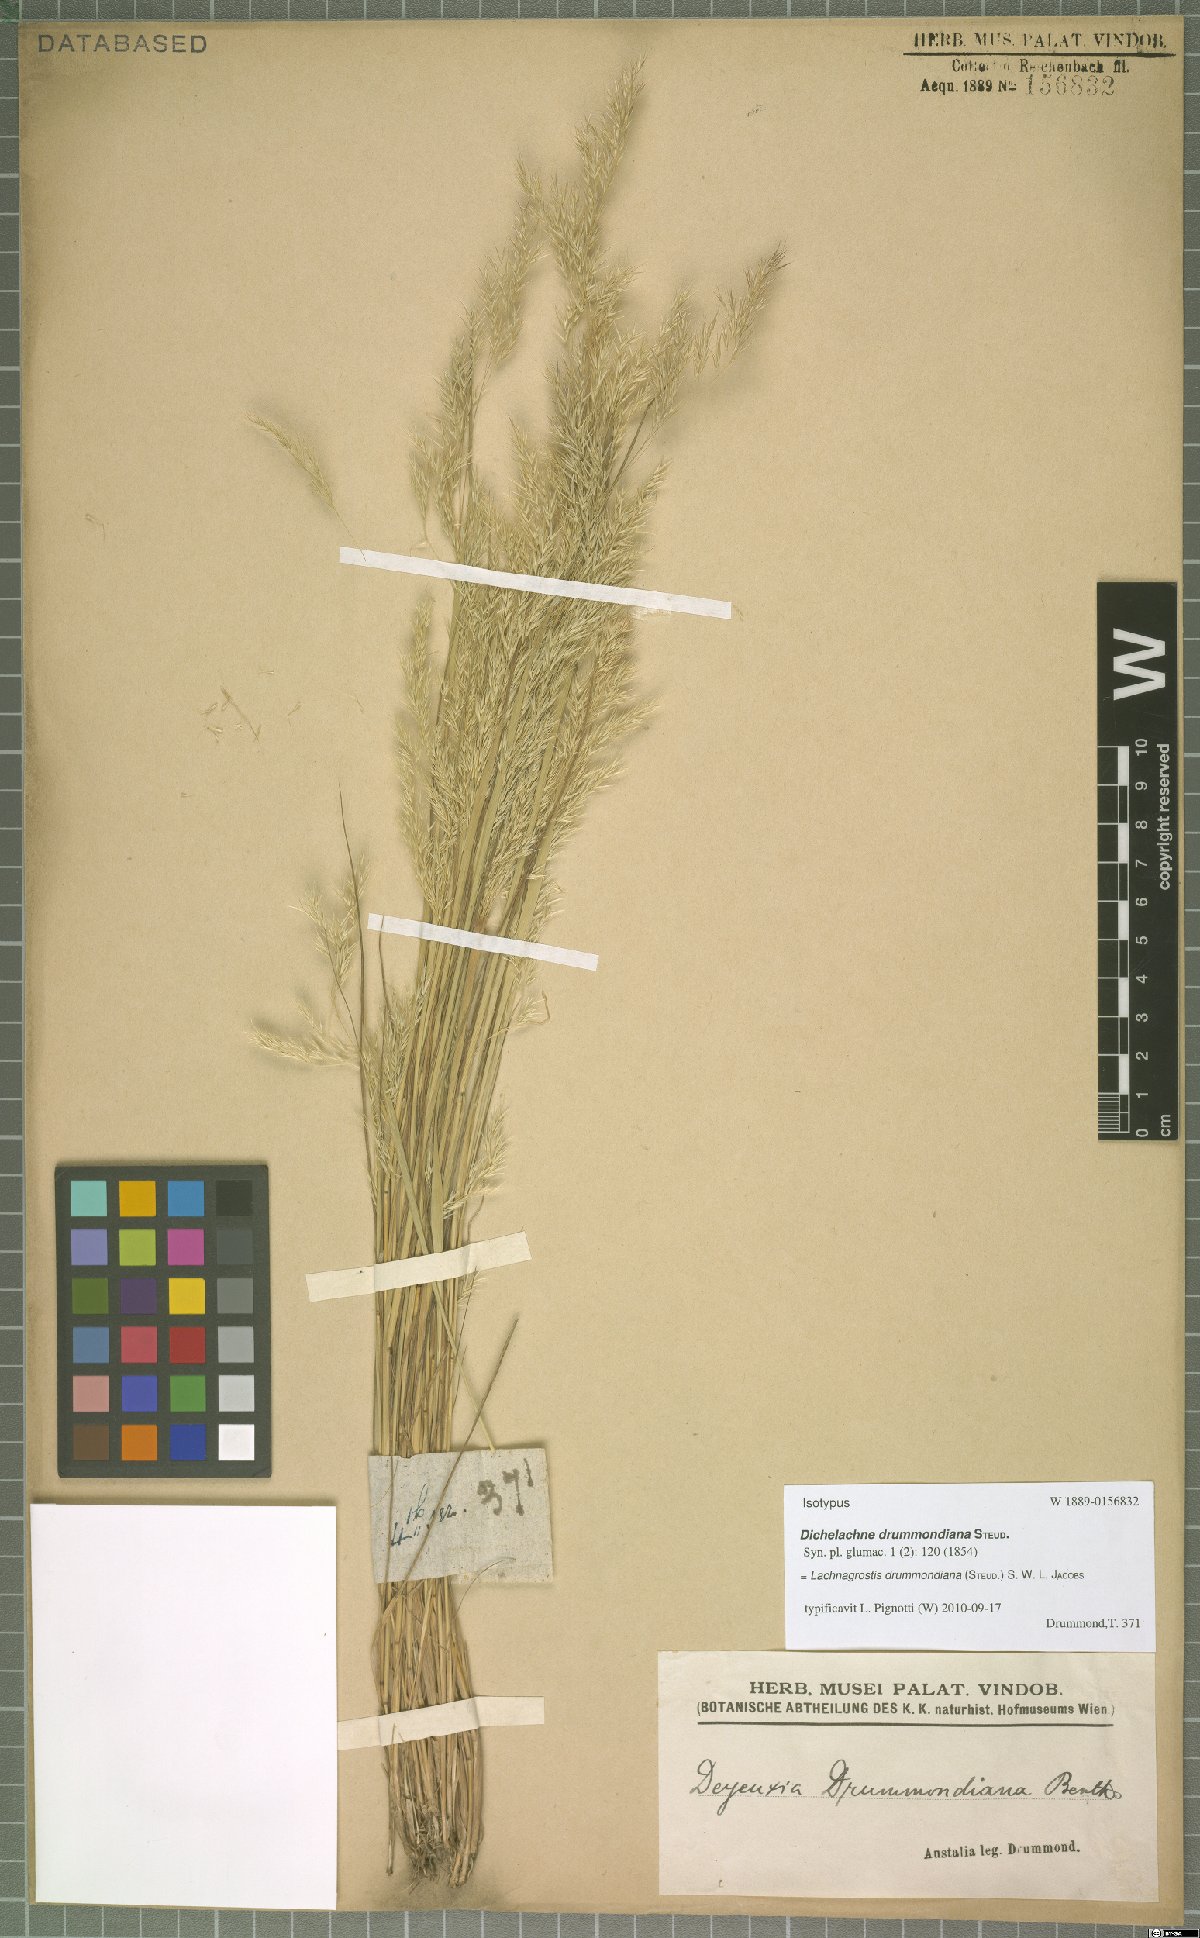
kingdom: Plantae
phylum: Tracheophyta
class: Liliopsida
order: Poales
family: Poaceae
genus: Lachnagrostis
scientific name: Lachnagrostis drummondiana
